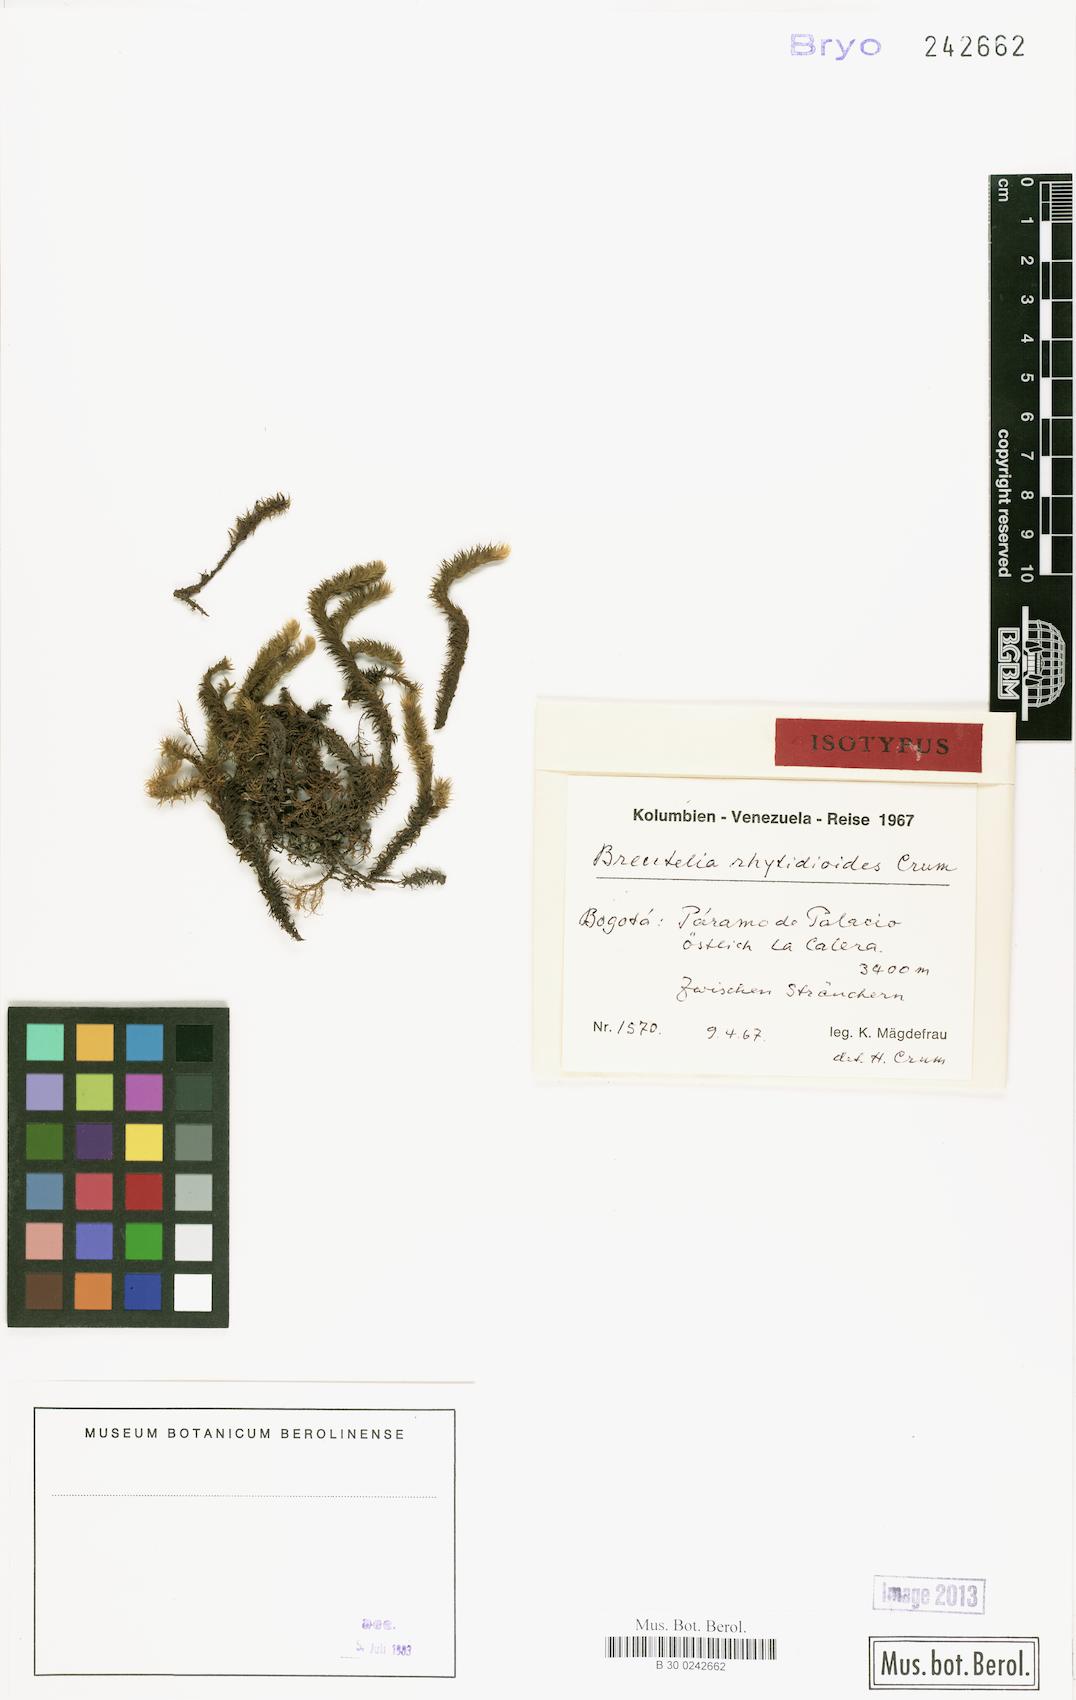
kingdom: Plantae
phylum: Bryophyta
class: Bryopsida
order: Bartramiales
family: Bartramiaceae
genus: Breutelia
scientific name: Breutelia karsteniana
